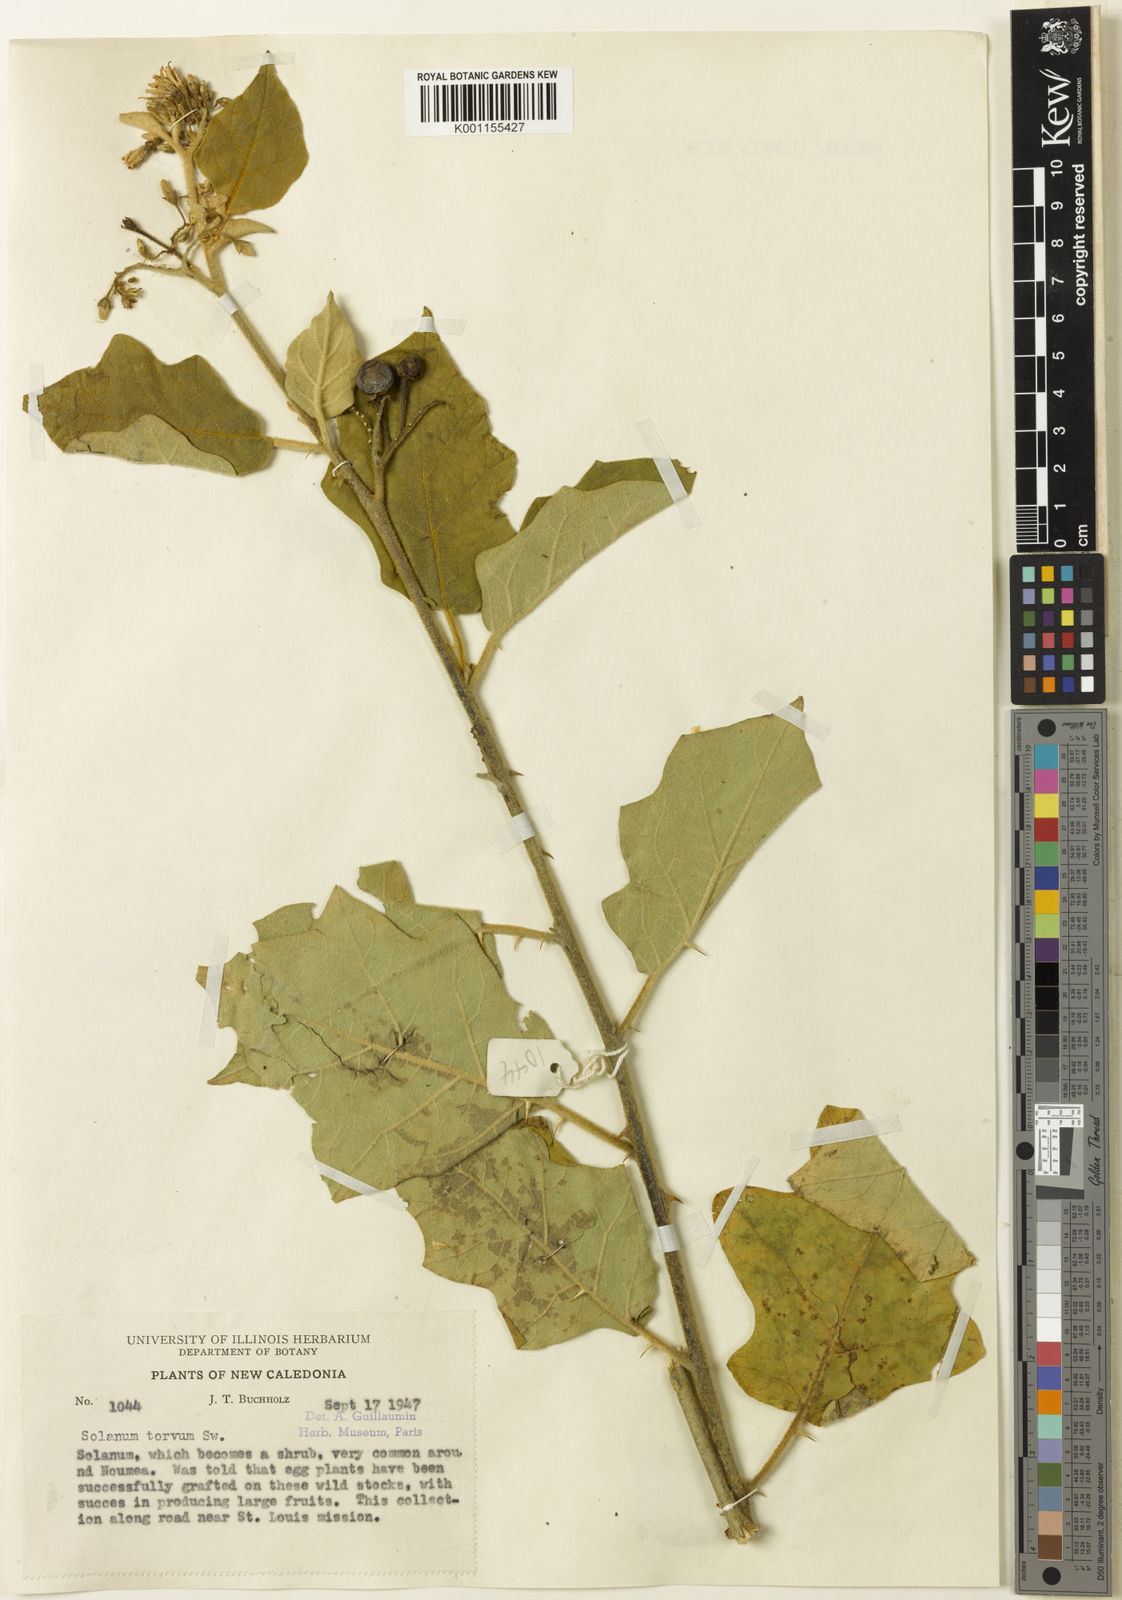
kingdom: Plantae
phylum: Tracheophyta
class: Magnoliopsida
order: Solanales
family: Solanaceae
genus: Solanum
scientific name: Solanum torvum
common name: Turkey berry
